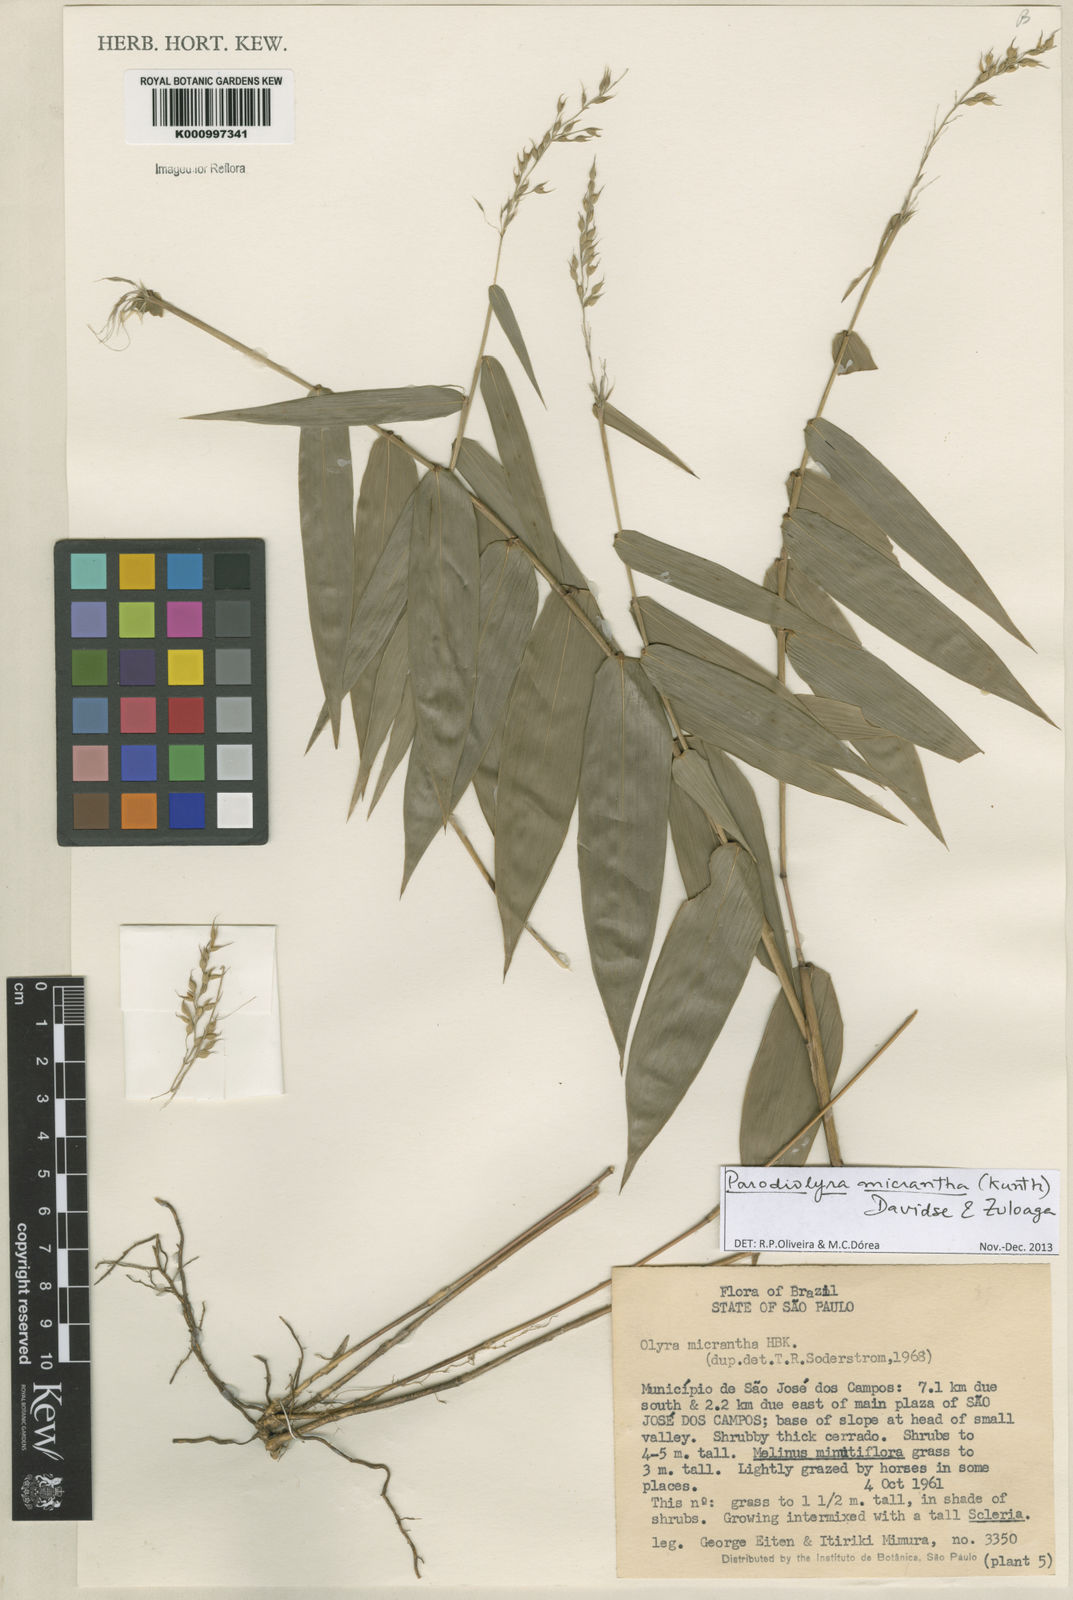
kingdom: Plantae
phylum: Tracheophyta
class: Liliopsida
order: Poales
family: Poaceae
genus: Taquara
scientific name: Taquara micrantha
